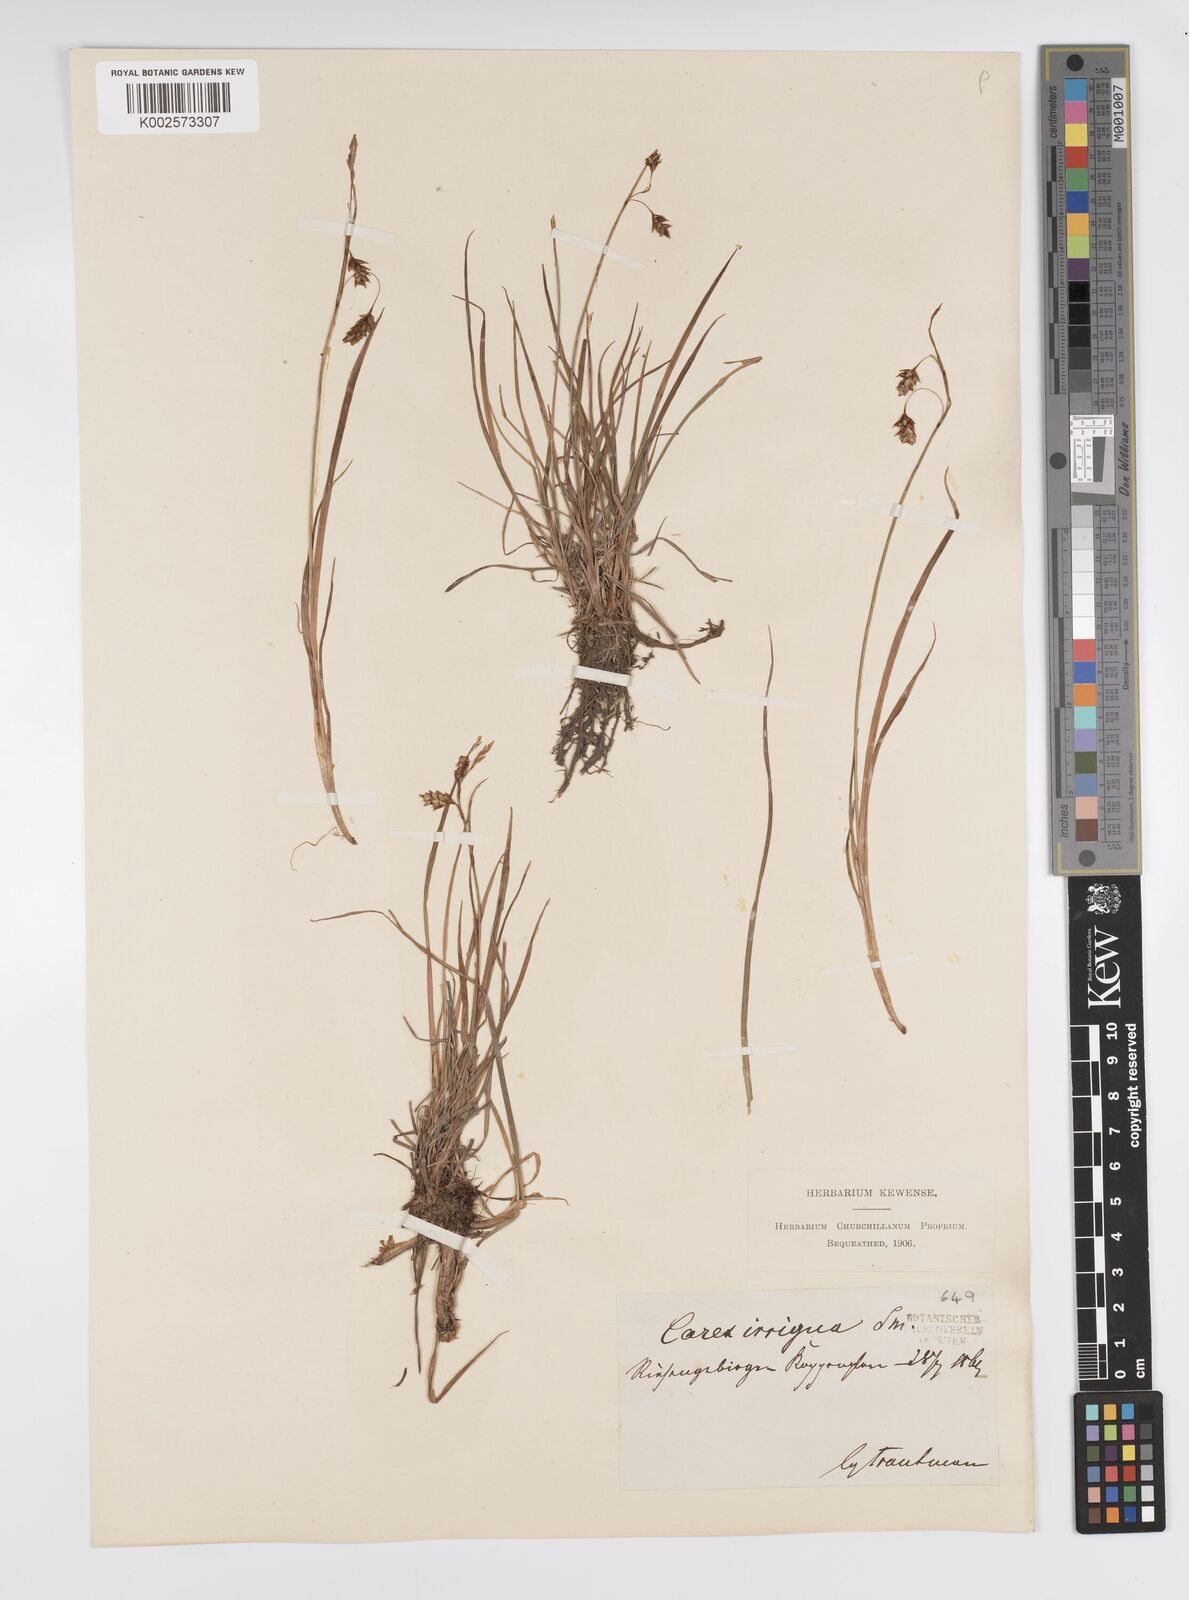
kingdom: Plantae
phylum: Tracheophyta
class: Liliopsida
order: Poales
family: Cyperaceae
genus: Carex
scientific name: Carex magellanica
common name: Bog sedge
